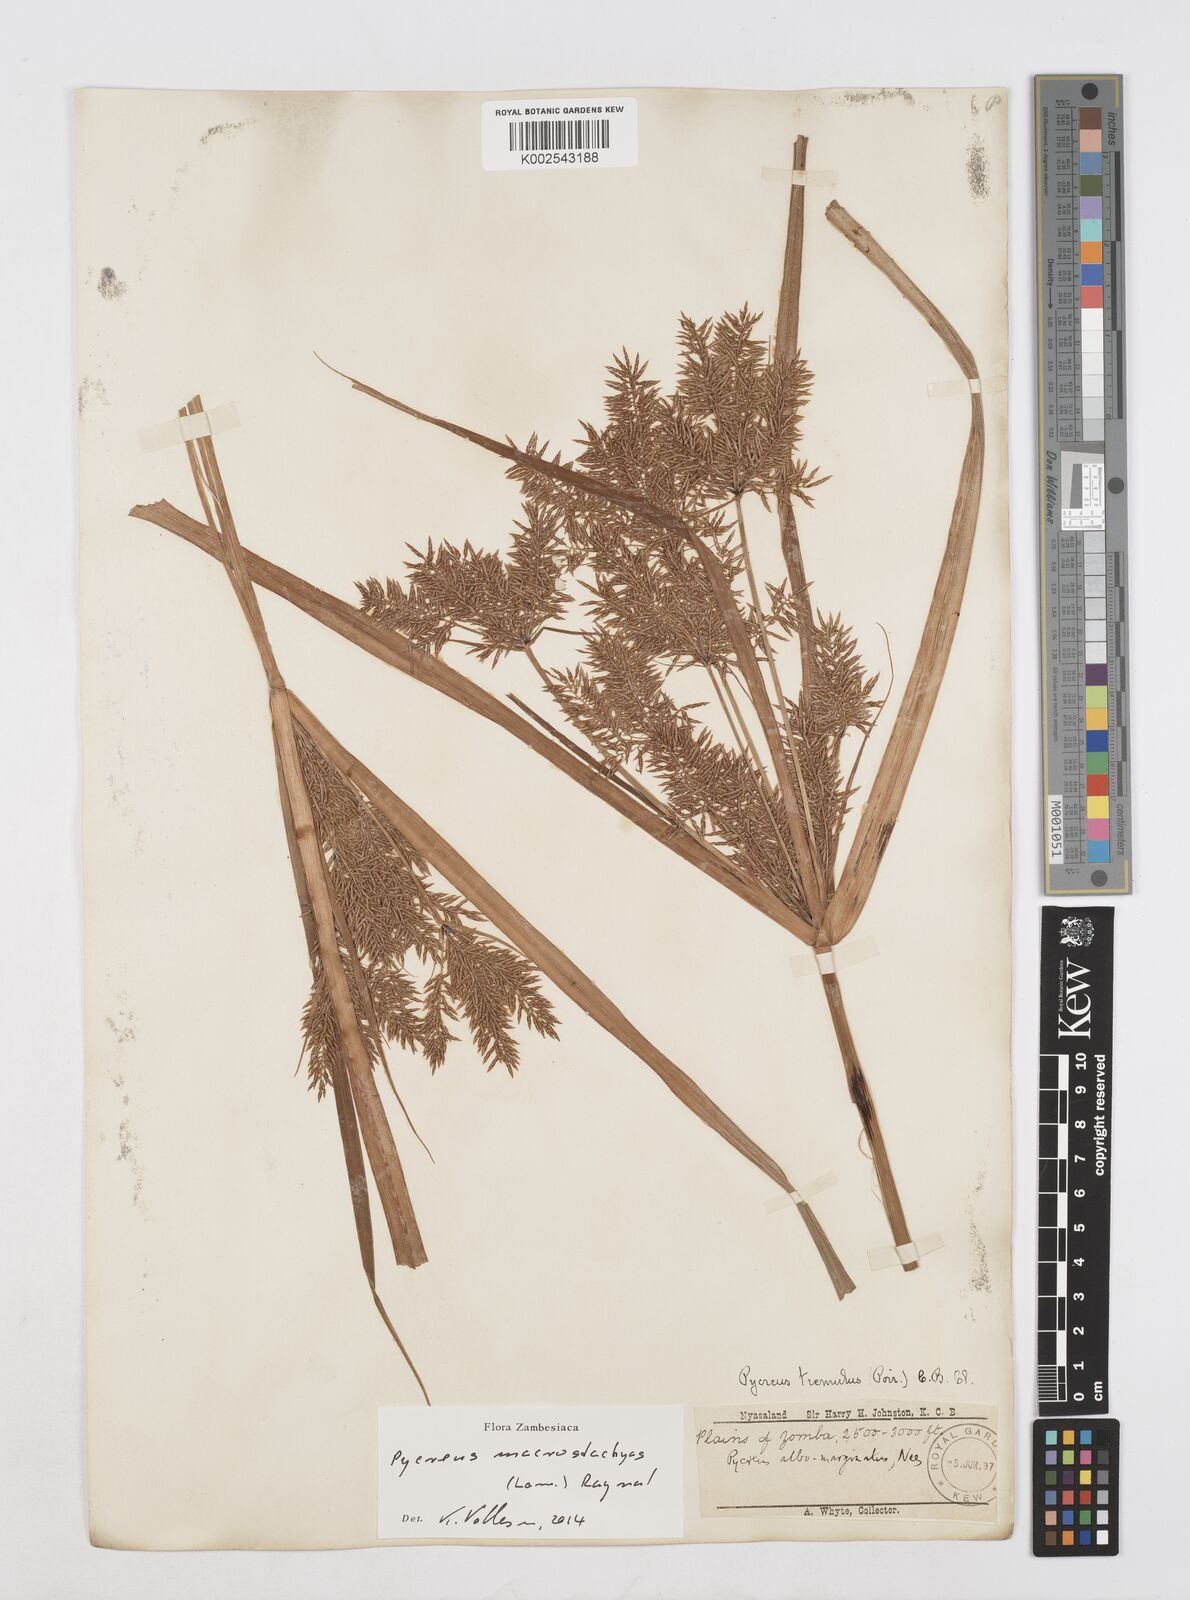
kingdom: Plantae
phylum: Tracheophyta
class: Liliopsida
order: Poales
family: Cyperaceae
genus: Cyperus
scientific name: Cyperus macrostachyos
